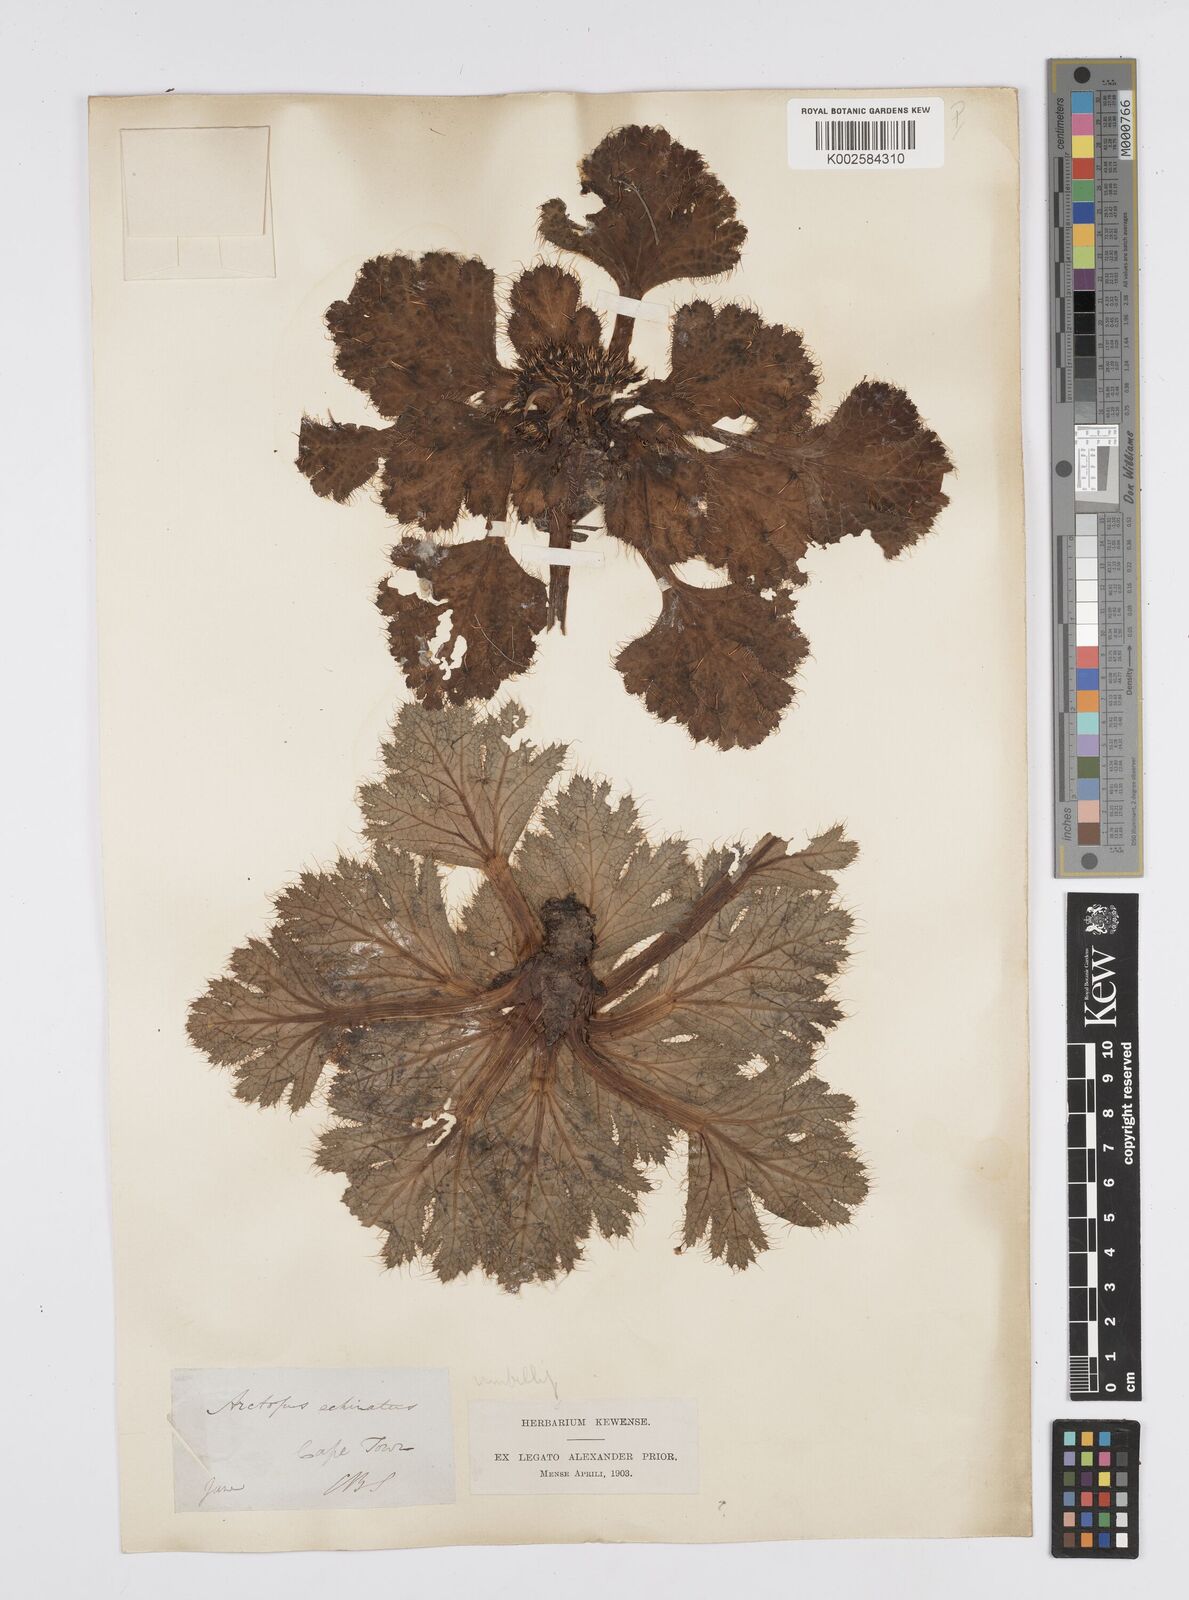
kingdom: Plantae
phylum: Tracheophyta
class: Magnoliopsida
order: Apiales
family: Apiaceae
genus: Arctopus
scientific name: Arctopus echinatus
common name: Platdoring
